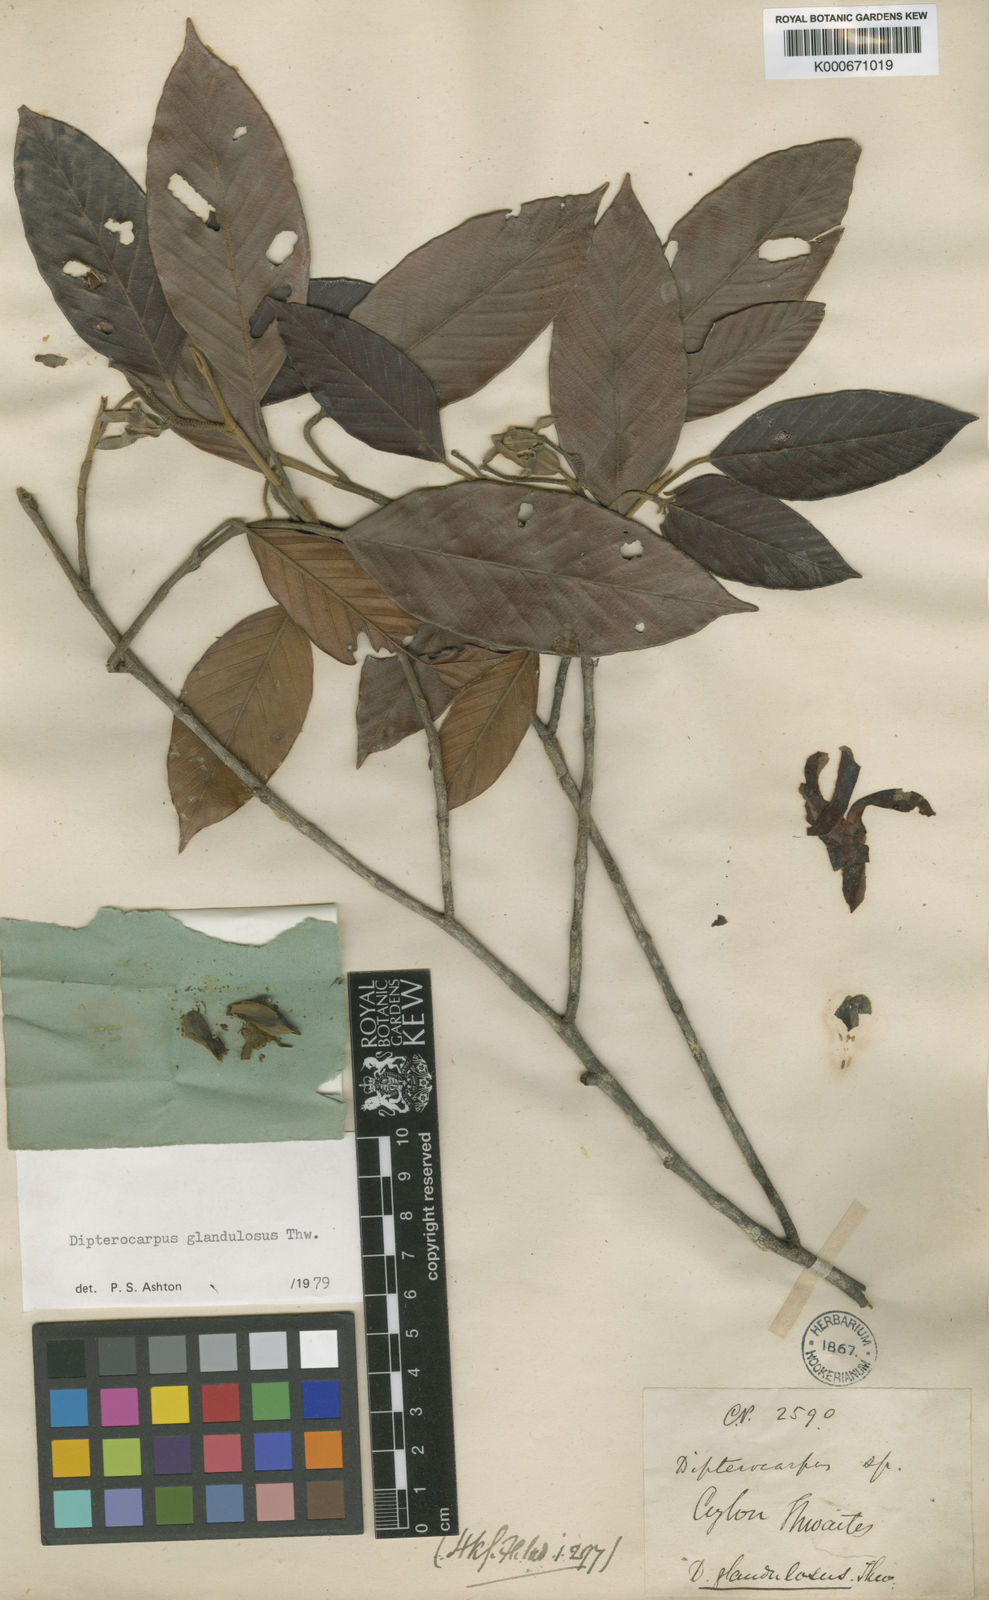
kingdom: Plantae
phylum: Tracheophyta
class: Magnoliopsida
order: Malvales
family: Dipterocarpaceae
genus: Dipterocarpus
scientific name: Dipterocarpus glandulosus
